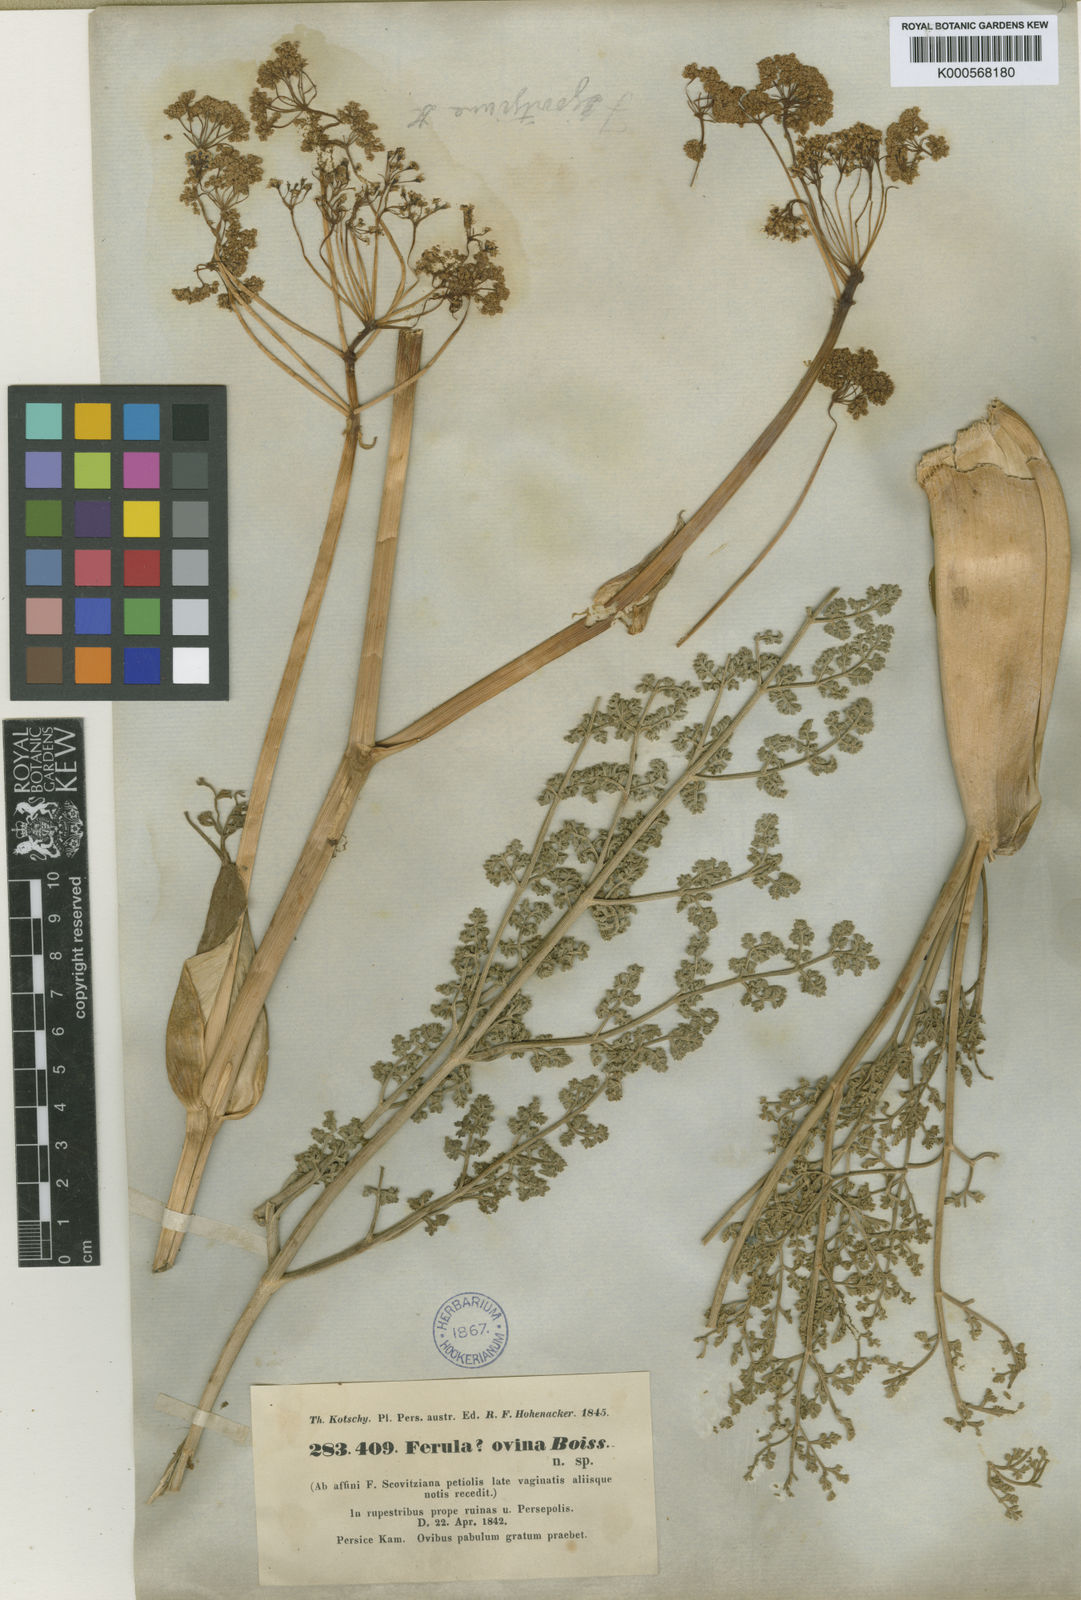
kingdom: Plantae
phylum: Tracheophyta
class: Magnoliopsida
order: Apiales
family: Apiaceae
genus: Ferula
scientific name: Ferula ovina
